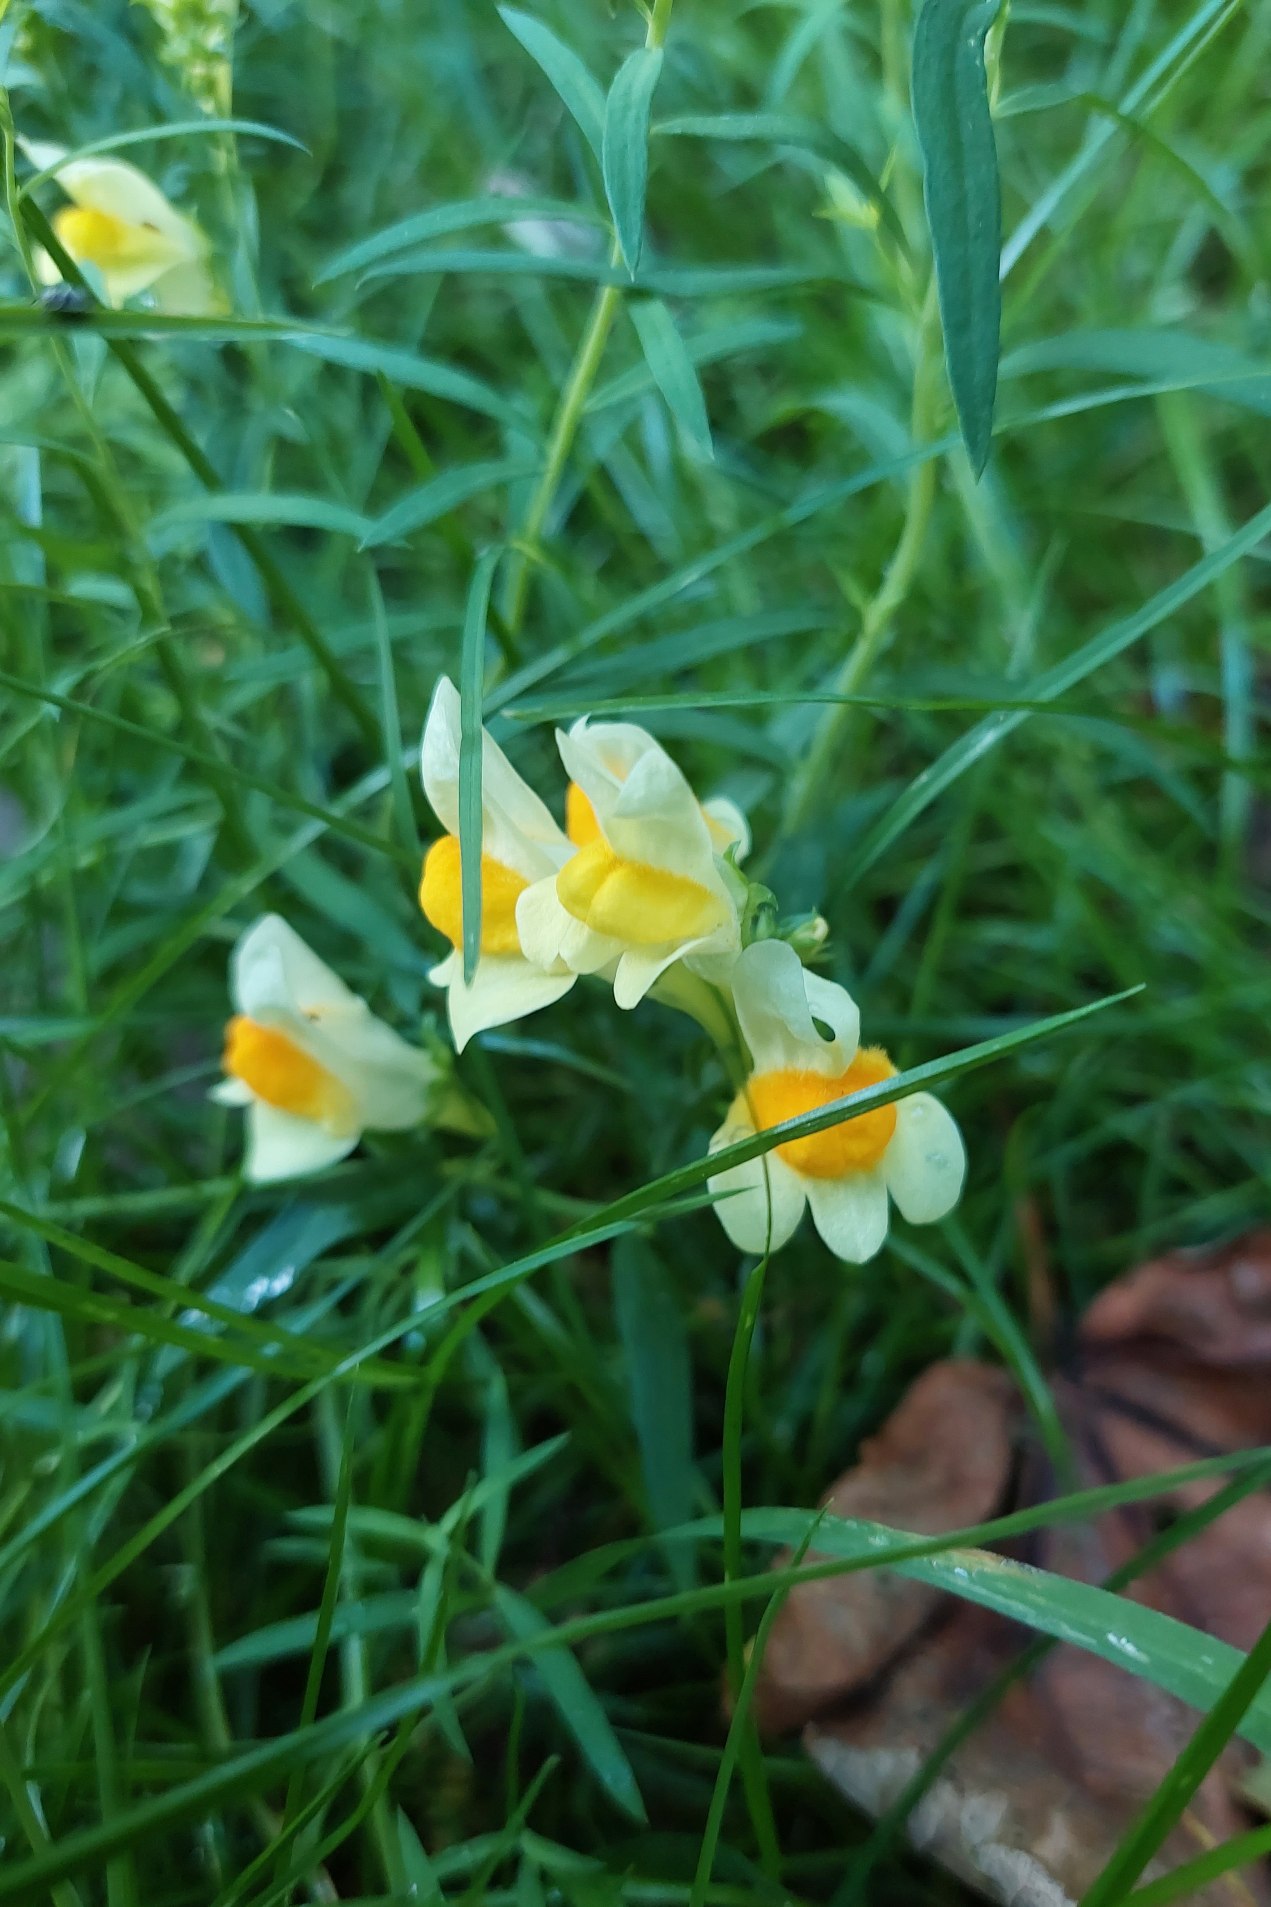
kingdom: Plantae
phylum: Tracheophyta
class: Magnoliopsida
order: Lamiales
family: Plantaginaceae
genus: Linaria
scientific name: Linaria vulgaris
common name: Almindelig torskemund
